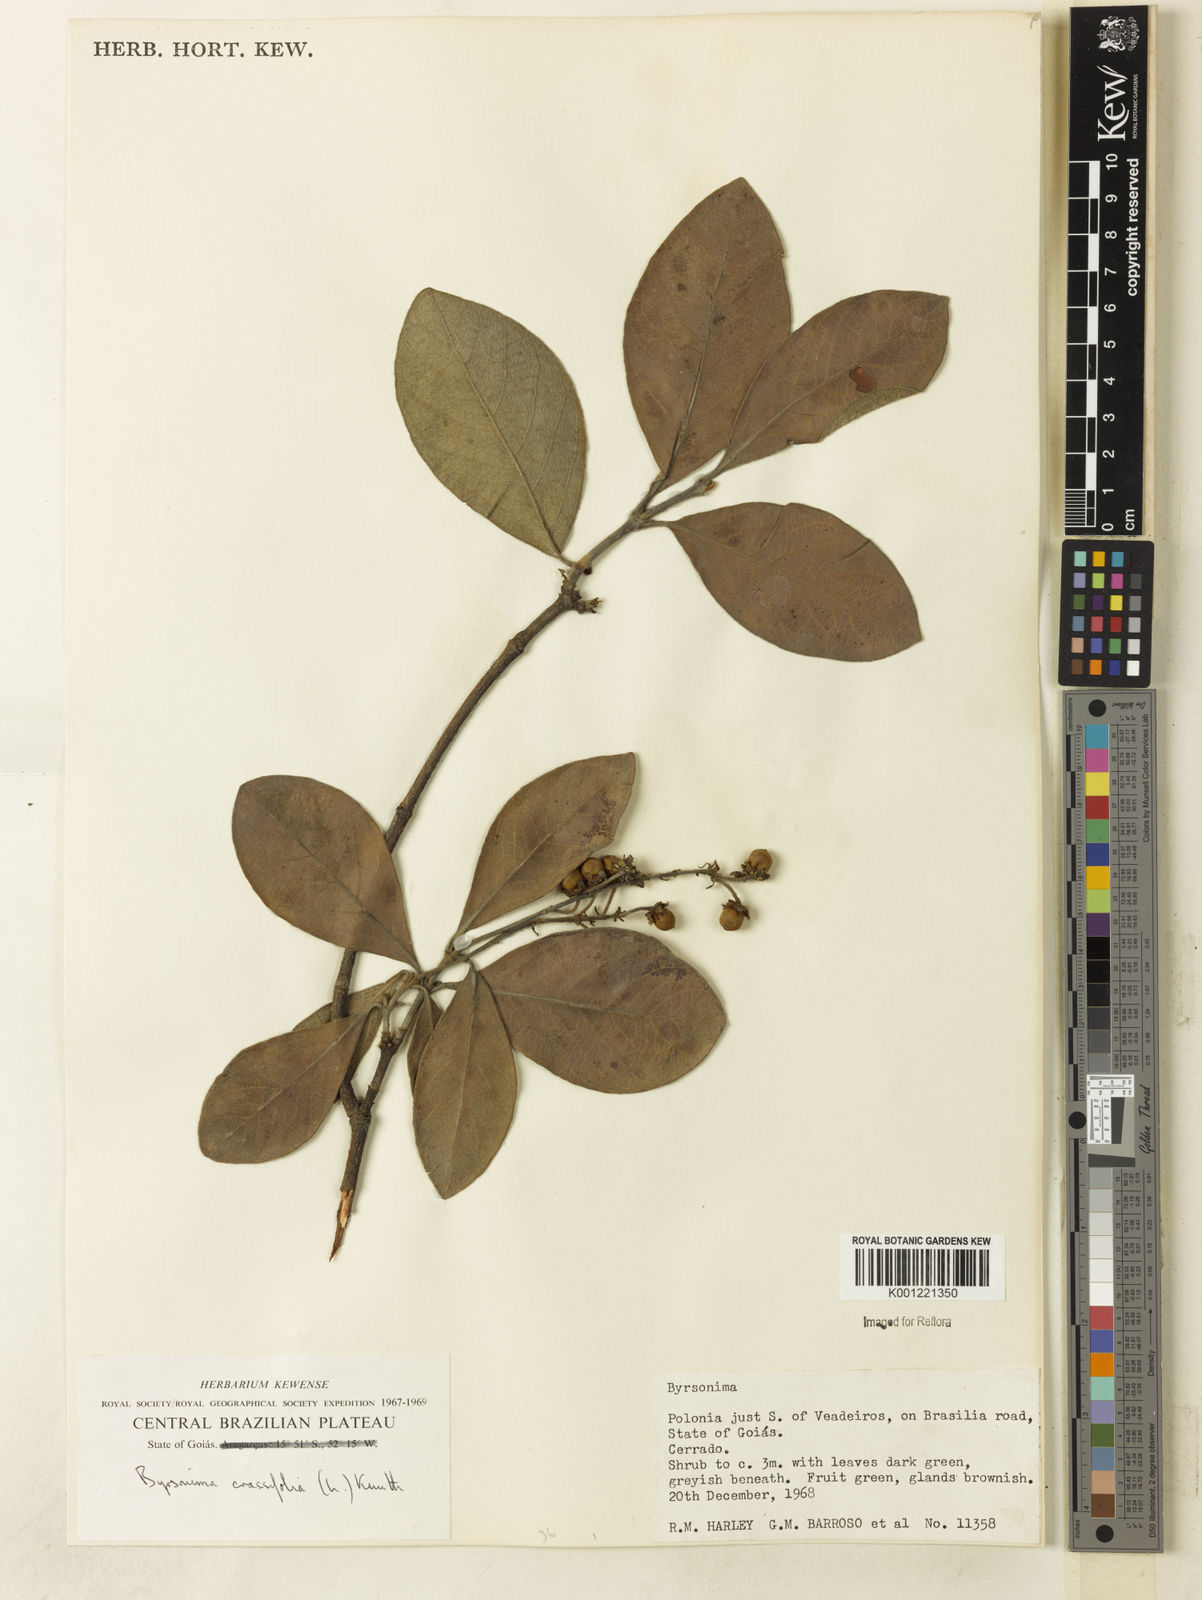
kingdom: Plantae
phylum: Tracheophyta
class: Magnoliopsida
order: Malpighiales
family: Malpighiaceae
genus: Byrsonima
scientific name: Byrsonima crassifolia
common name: Golden spoon
